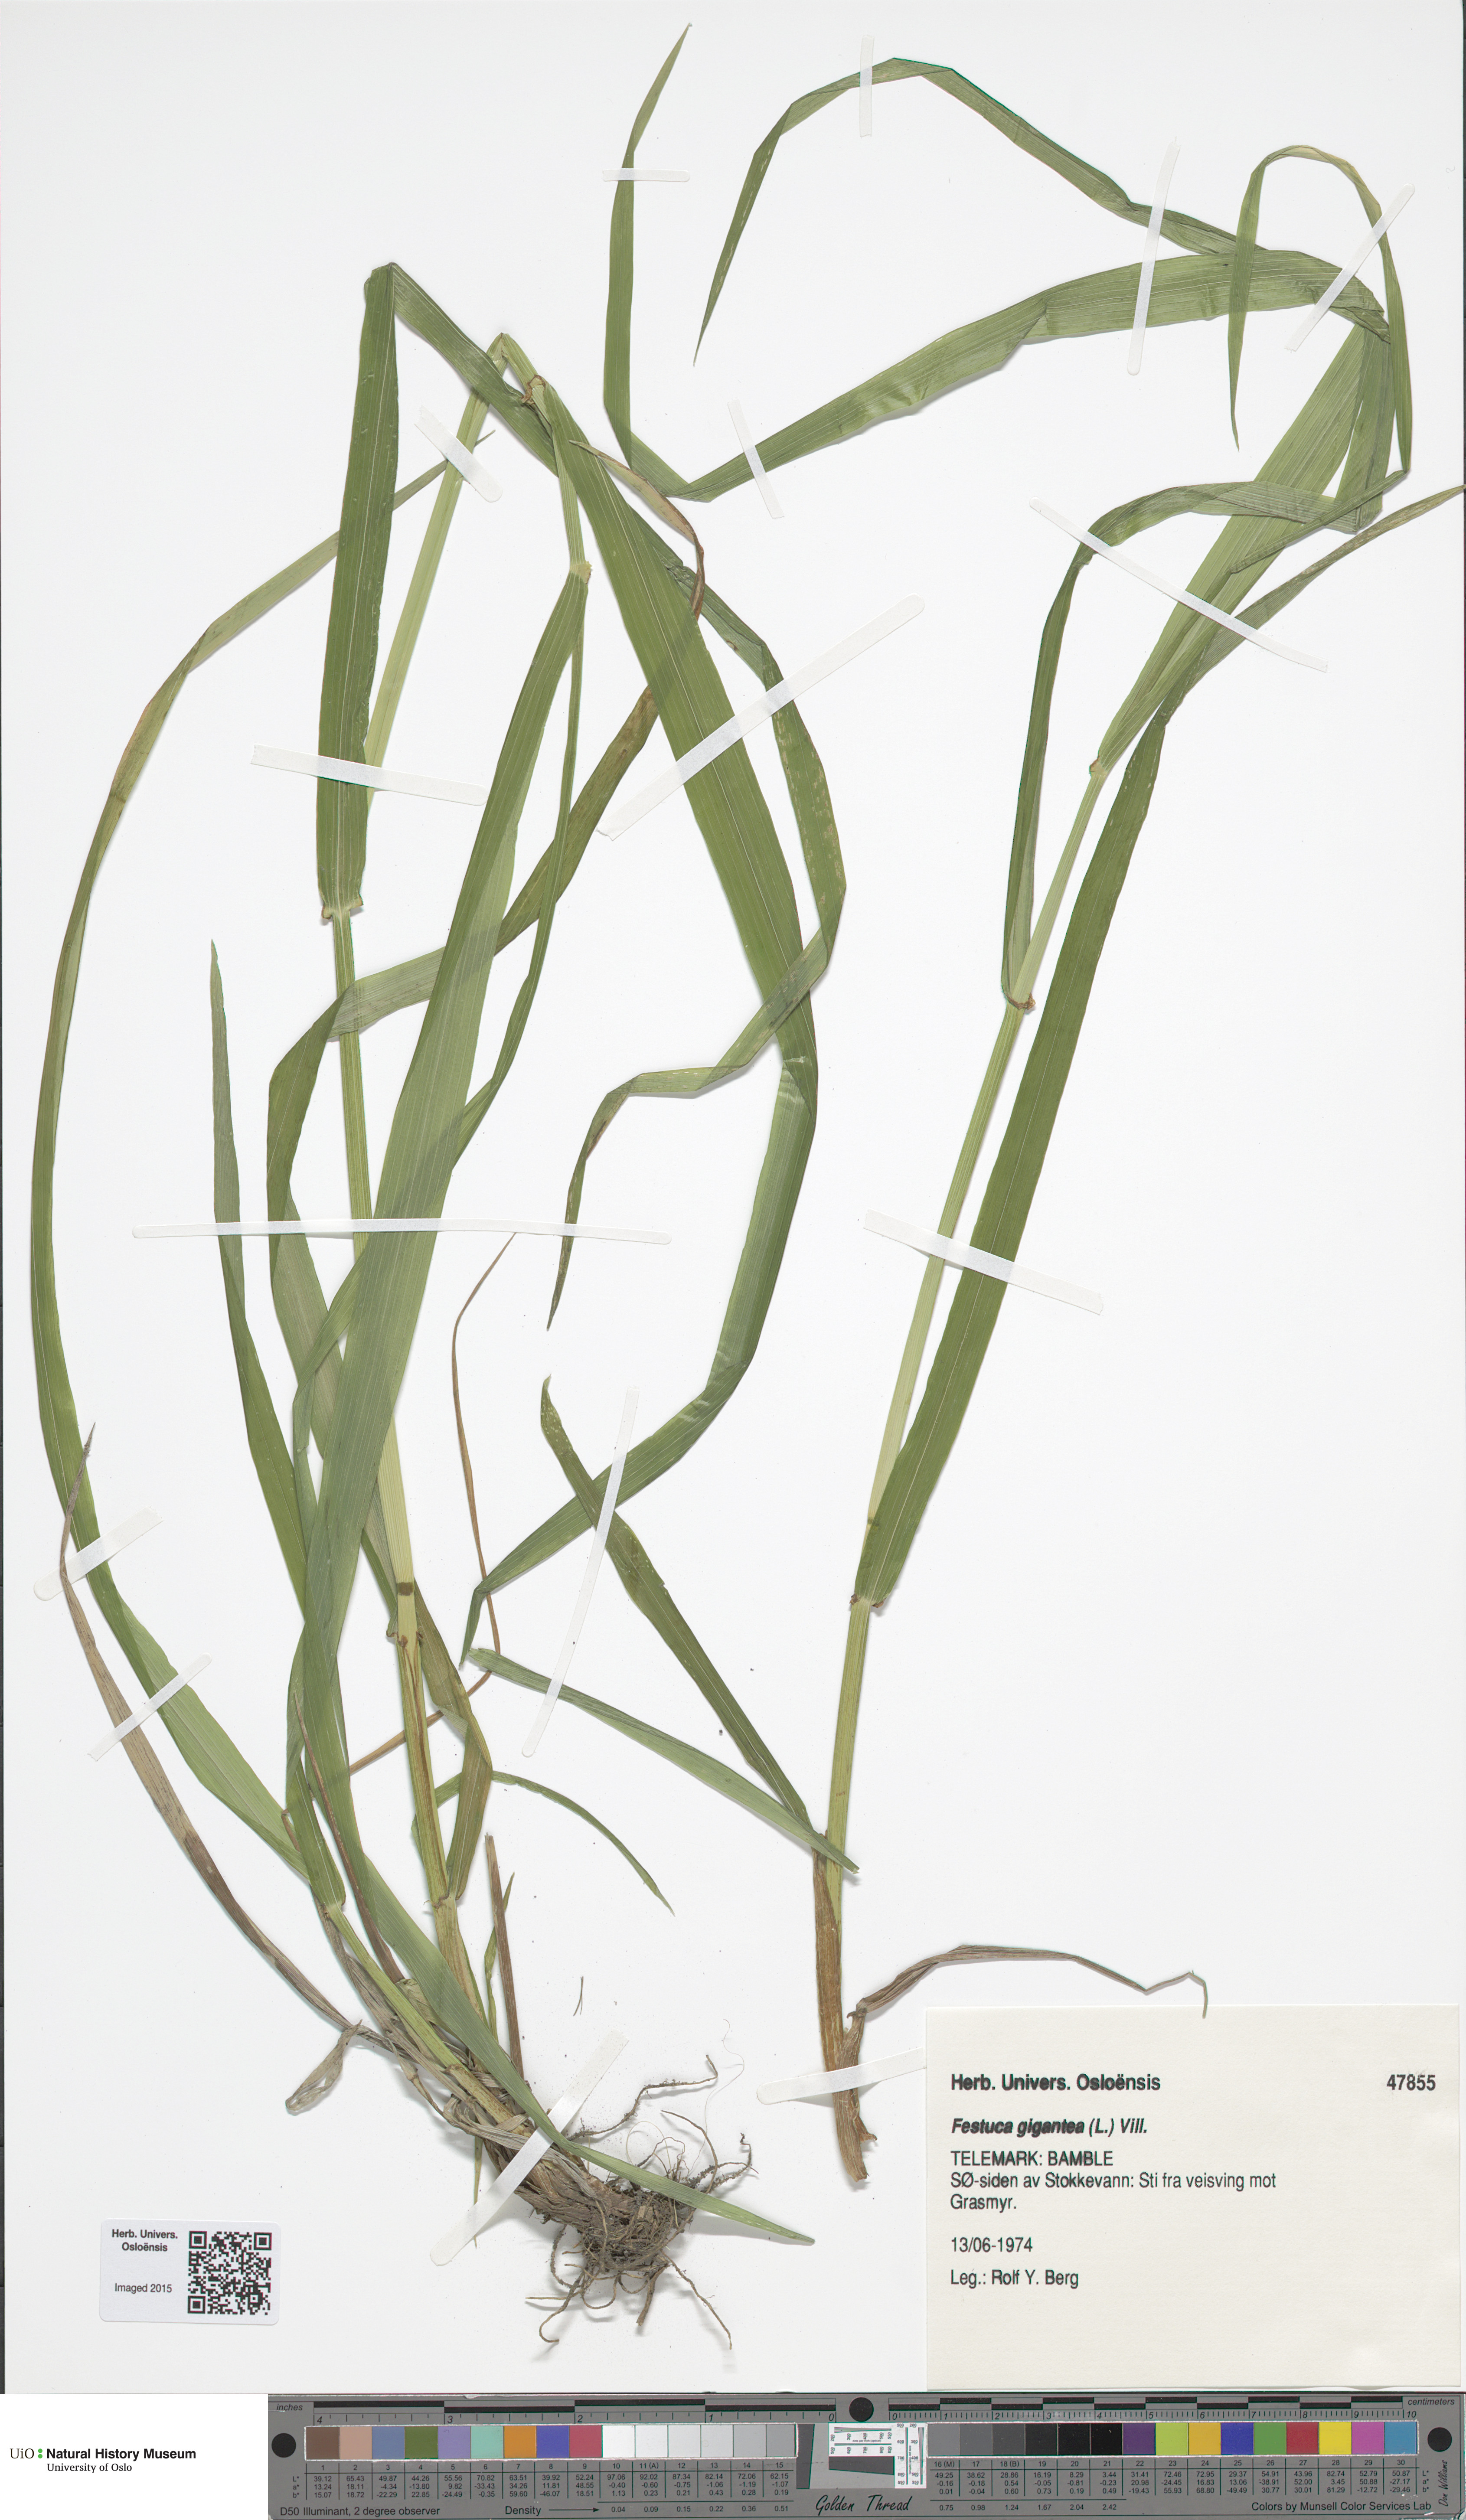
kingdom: Plantae
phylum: Tracheophyta
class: Liliopsida
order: Poales
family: Poaceae
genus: Lolium
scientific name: Lolium giganteum
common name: Giant fescue
